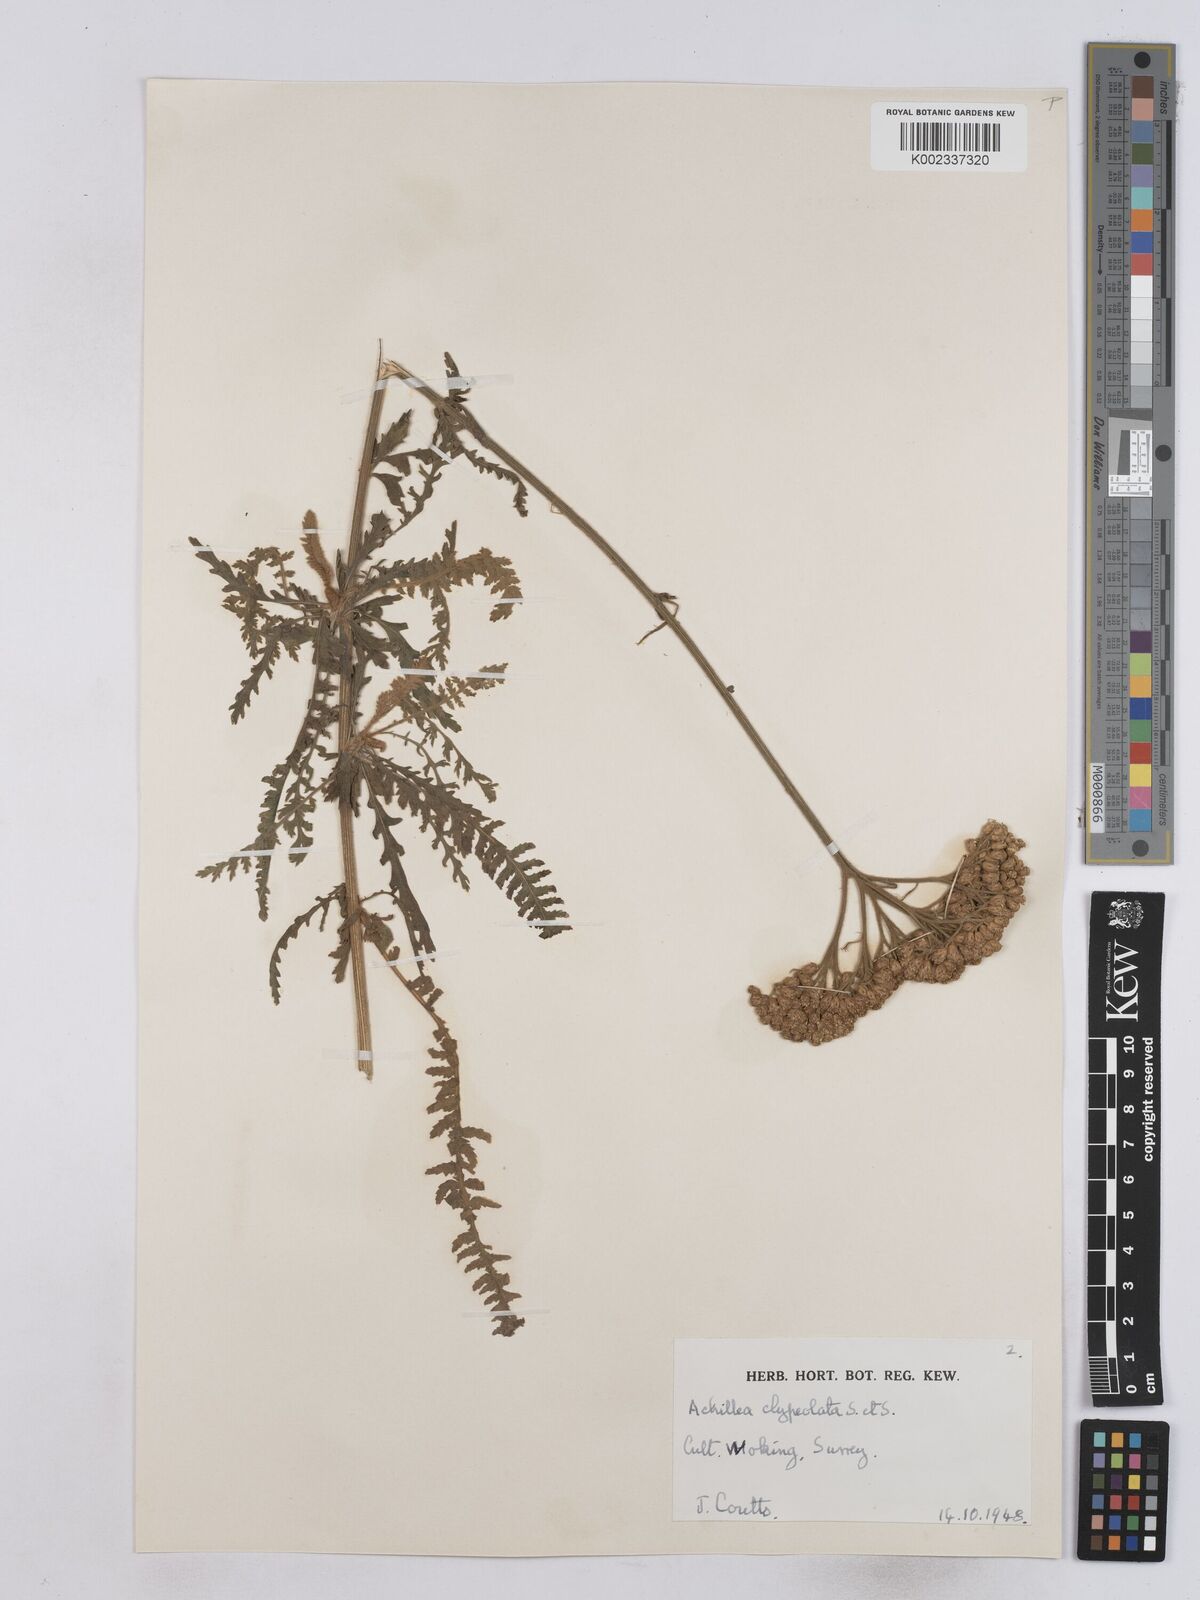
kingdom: Plantae
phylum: Tracheophyta
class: Magnoliopsida
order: Asterales
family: Asteraceae
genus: Achillea
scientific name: Achillea clypeolata
